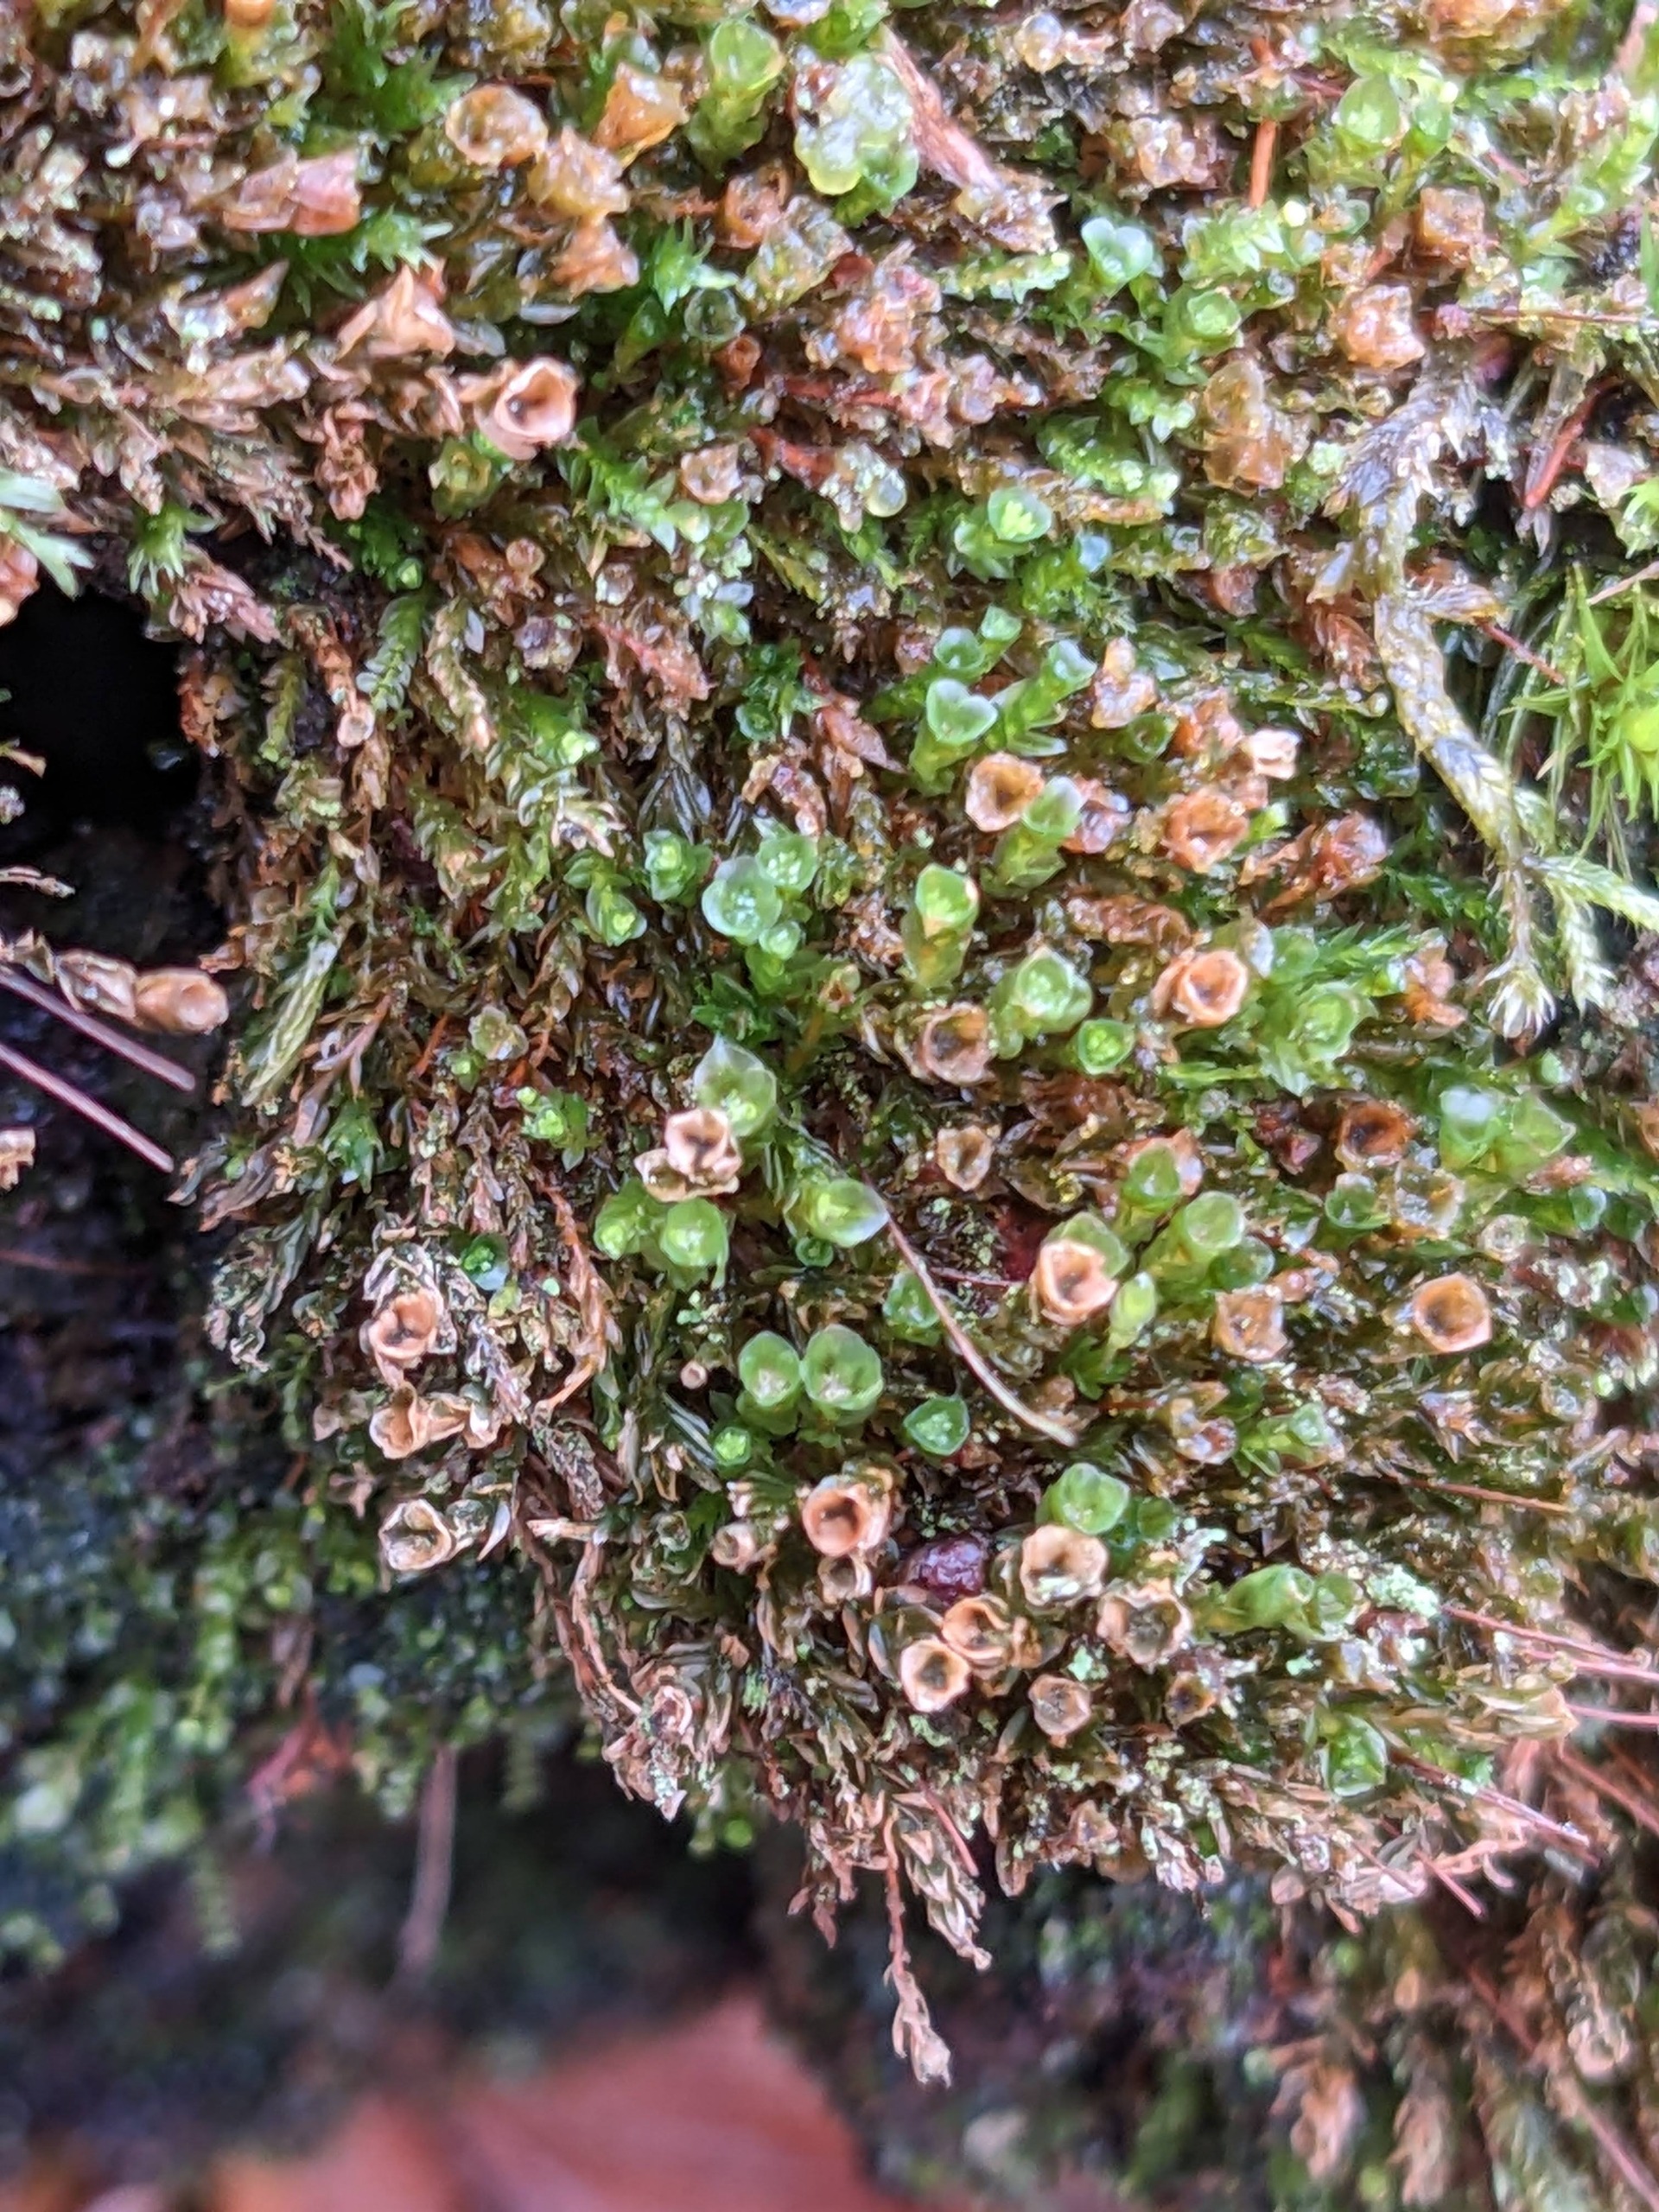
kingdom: Plantae
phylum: Bryophyta
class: Polytrichopsida
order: Tetraphidales
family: Tetraphidaceae
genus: Tetraphis
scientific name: Tetraphis pellucida
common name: Almindelig firtand
